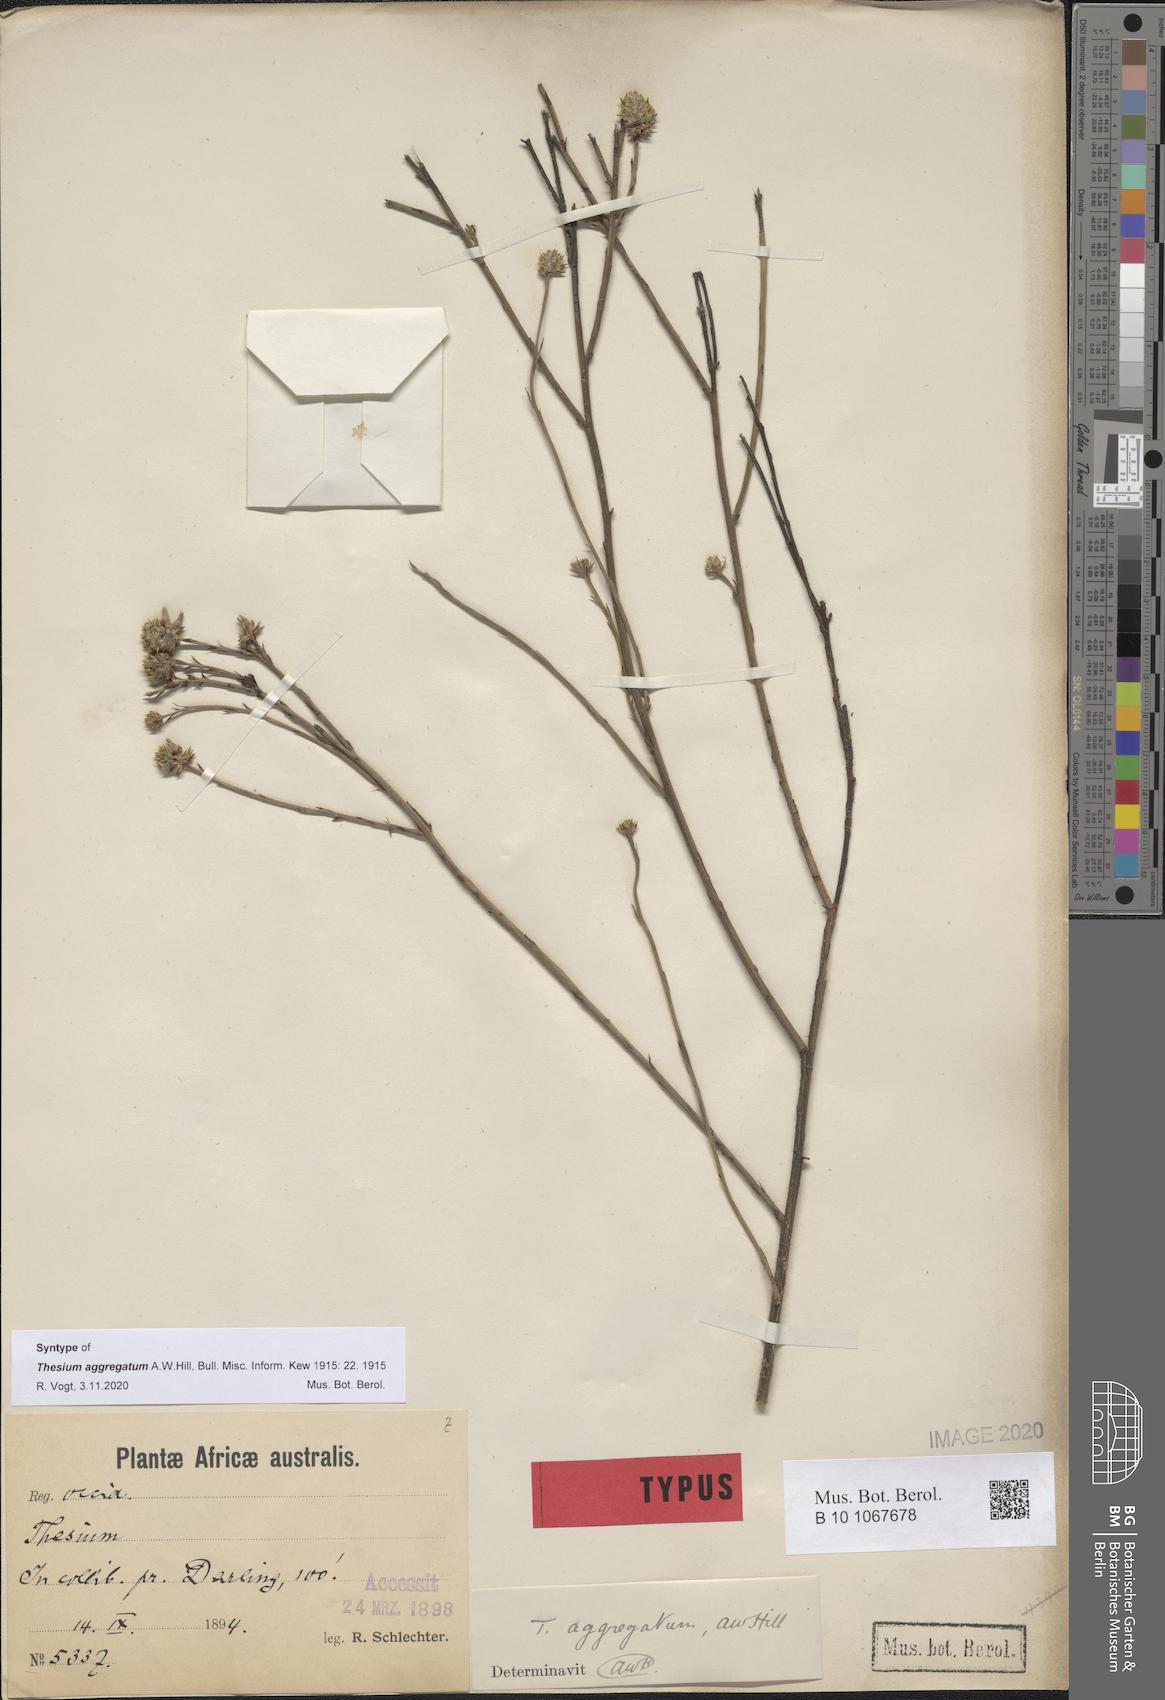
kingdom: Plantae
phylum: Tracheophyta
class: Magnoliopsida
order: Santalales
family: Thesiaceae
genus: Thesium
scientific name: Thesium aggregatum
